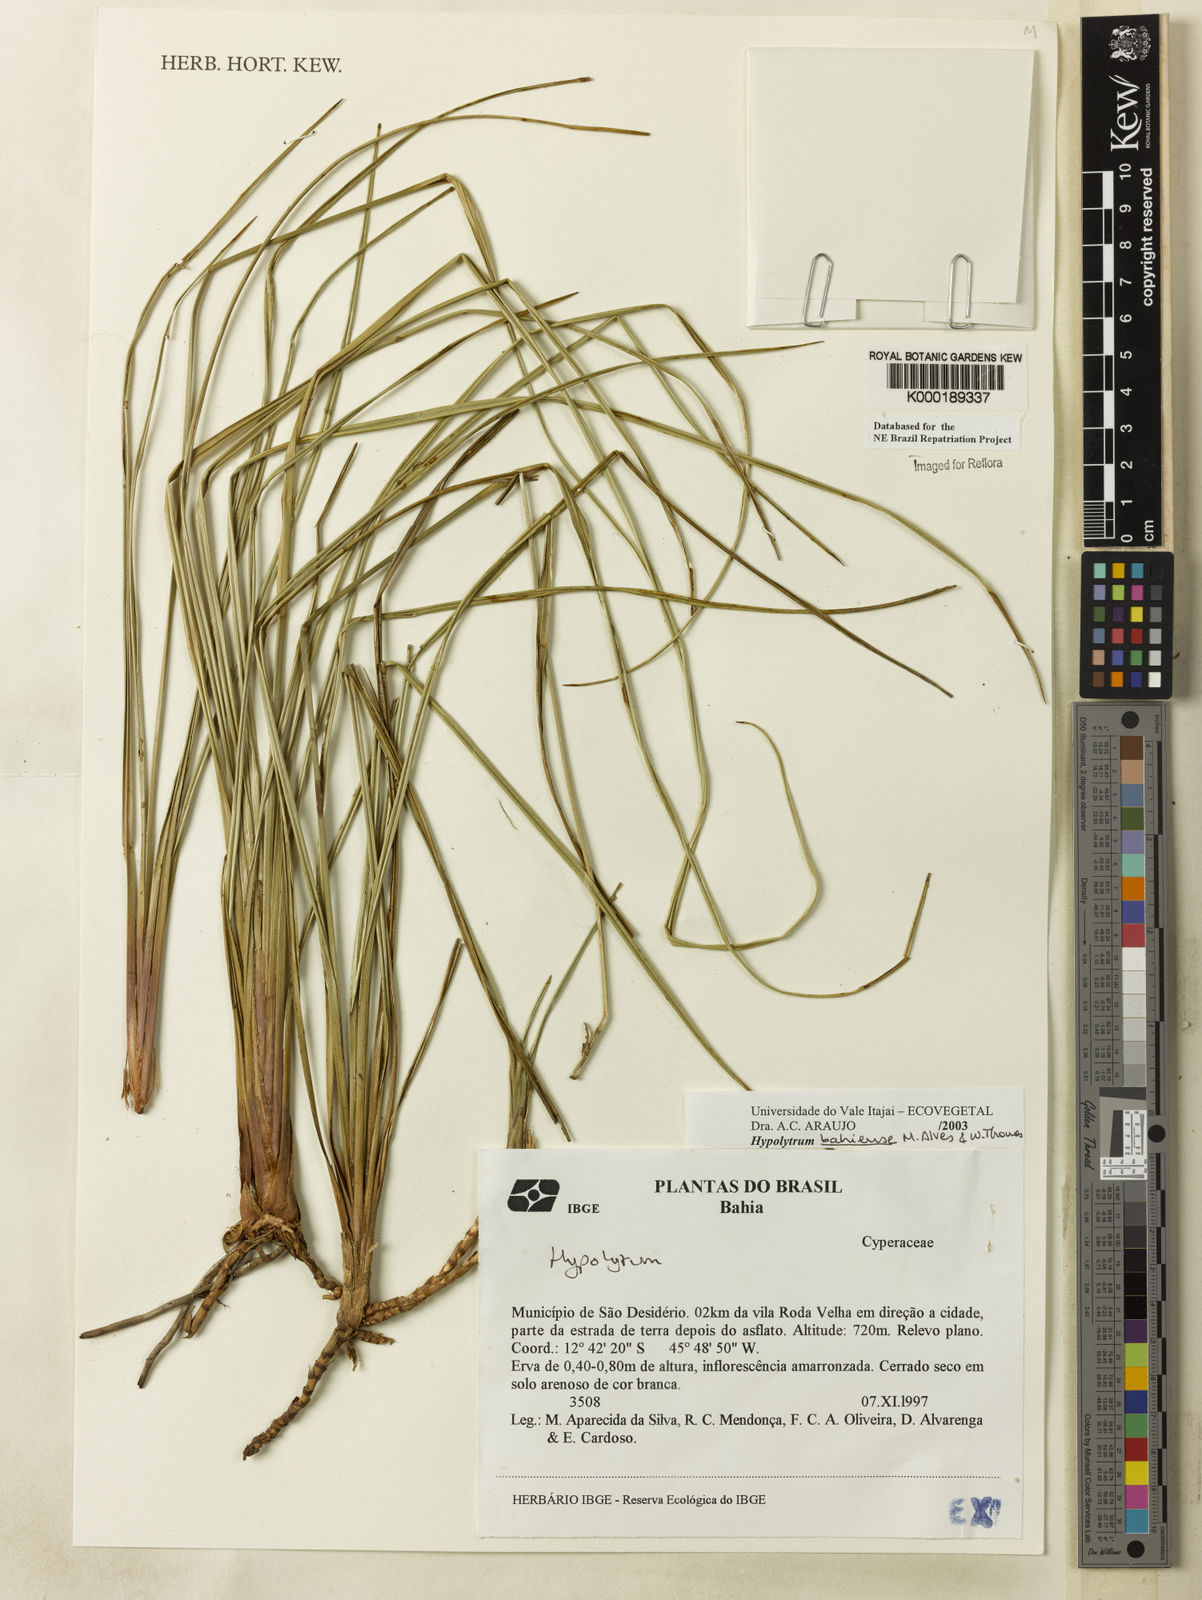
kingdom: Plantae
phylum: Tracheophyta
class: Liliopsida
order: Poales
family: Cyperaceae
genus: Hypolytrum
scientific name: Hypolytrum bahiense
